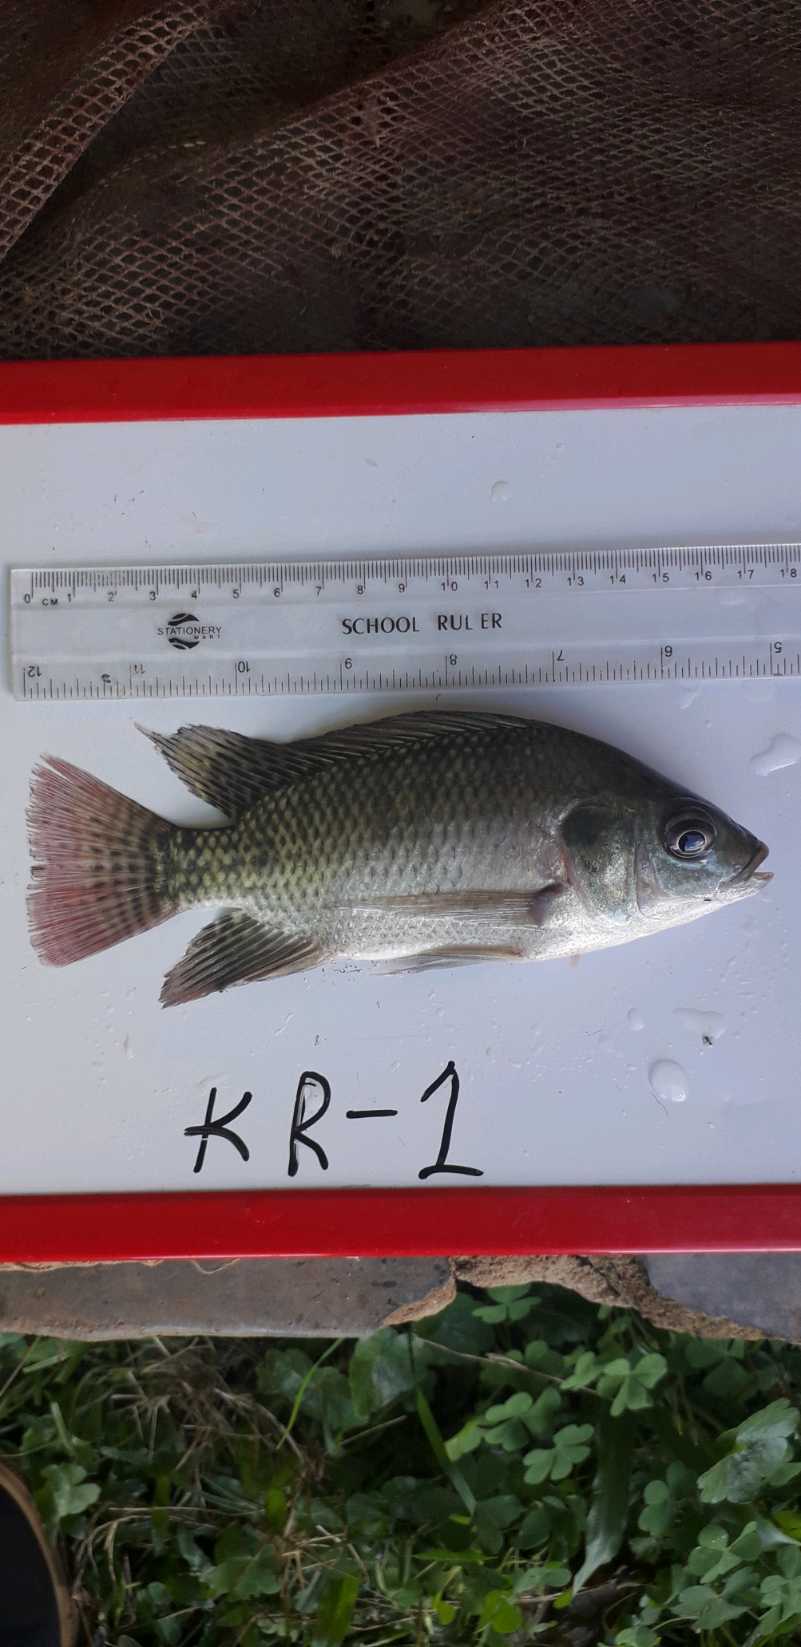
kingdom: Animalia
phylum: Chordata
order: Perciformes
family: Cichlidae
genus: Oreochromis
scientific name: Oreochromis niloticus
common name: Nile tilapia
